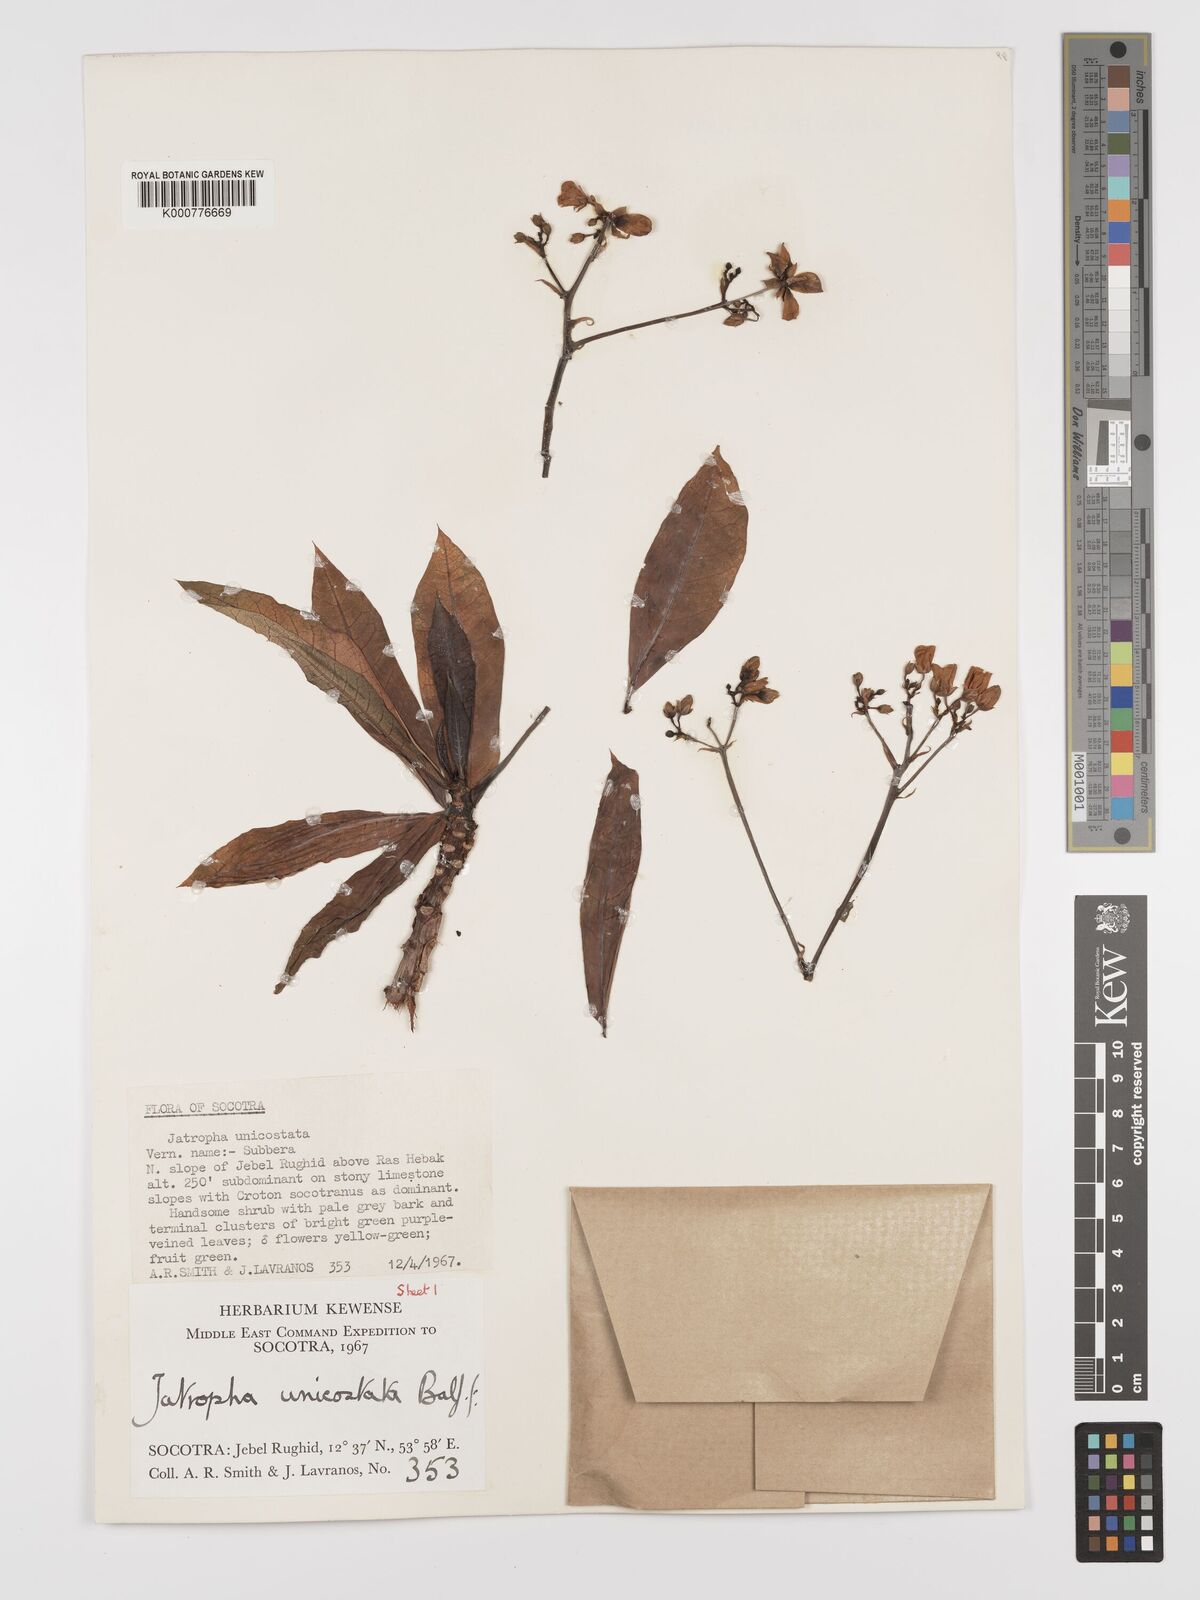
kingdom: Plantae
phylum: Tracheophyta
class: Magnoliopsida
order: Malpighiales
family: Euphorbiaceae
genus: Jatropha
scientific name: Jatropha unicostata
